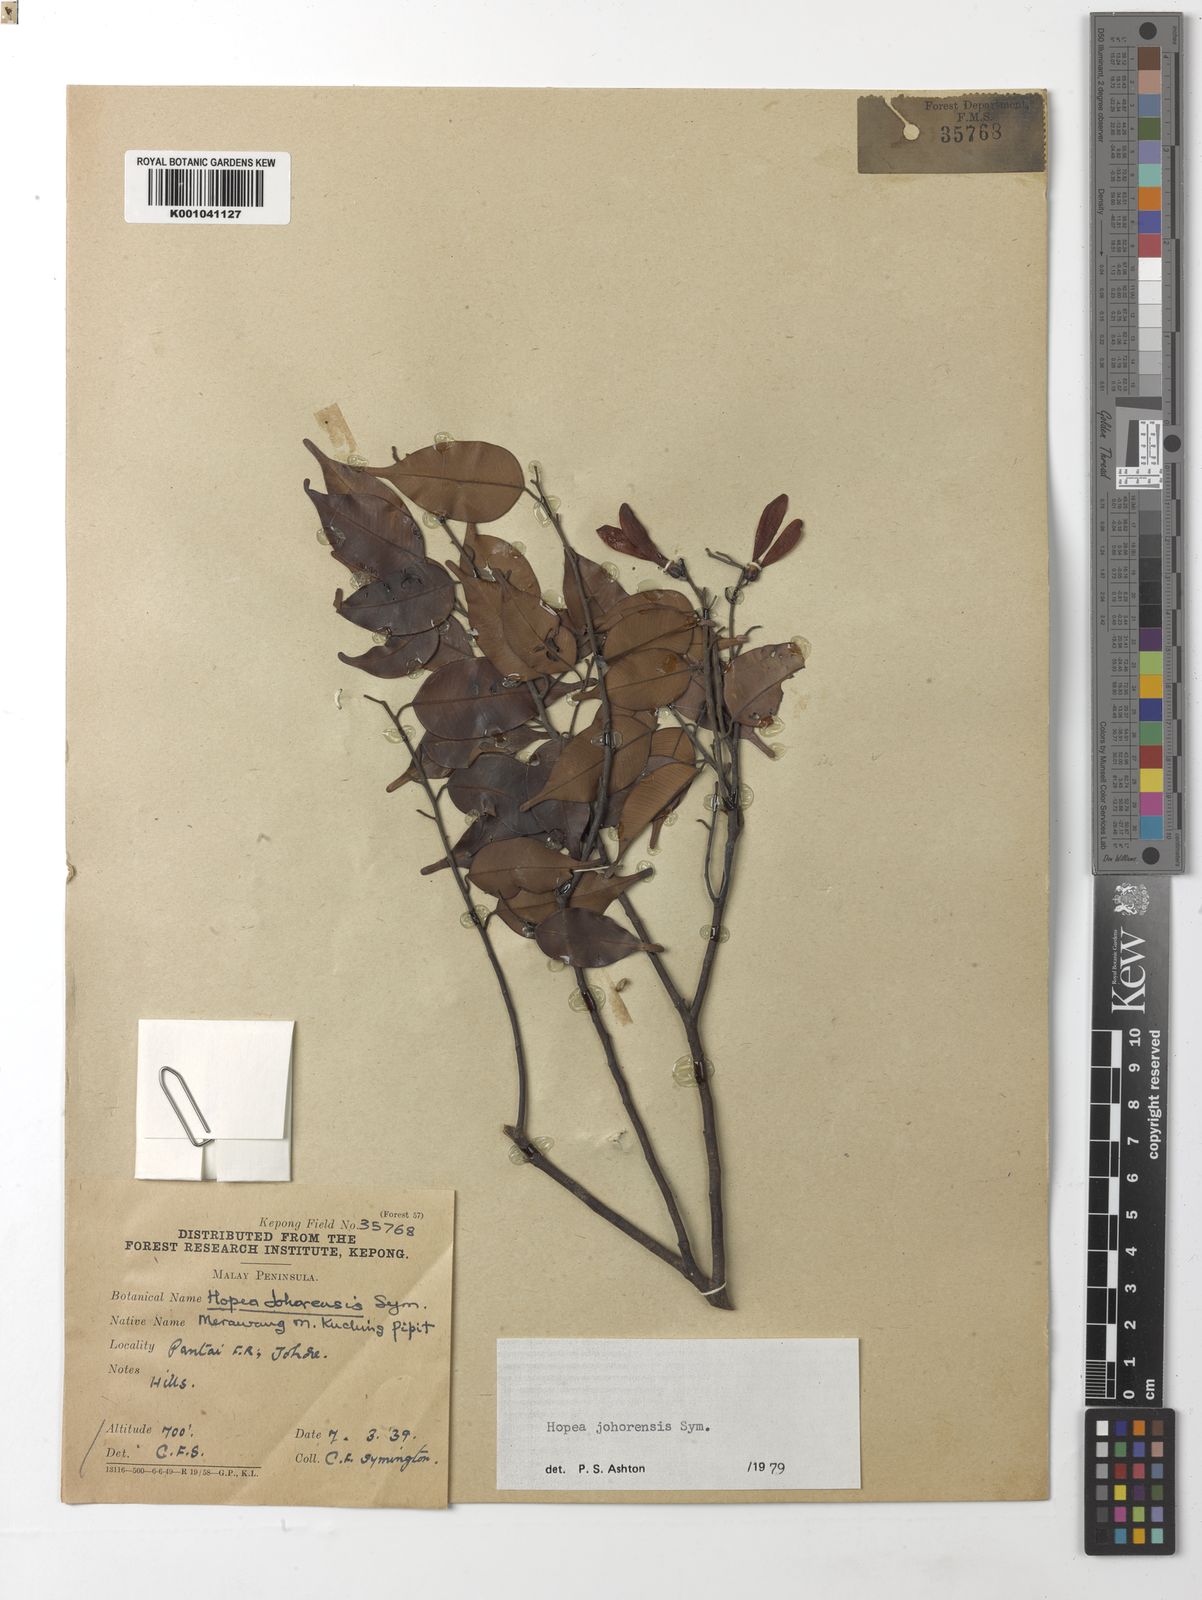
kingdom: Plantae
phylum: Tracheophyta
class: Magnoliopsida
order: Malvales
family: Dipterocarpaceae
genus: Hopea
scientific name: Hopea johorensis
